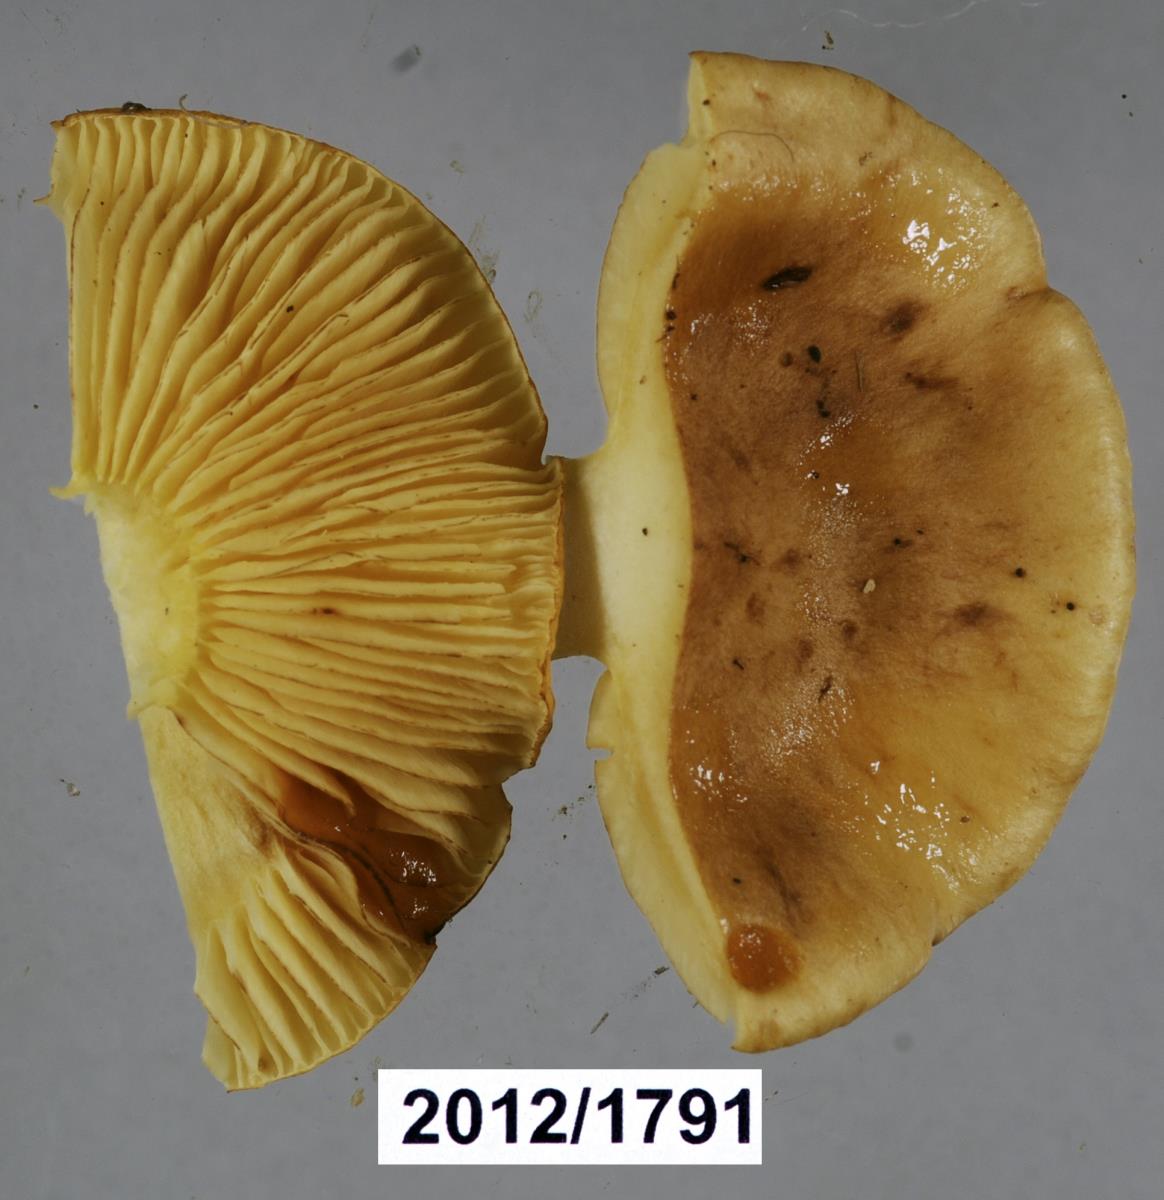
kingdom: Fungi
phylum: Basidiomycota
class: Agaricomycetes
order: Agaricales
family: Tricholomataceae
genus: Tricholoma
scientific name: Tricholoma
